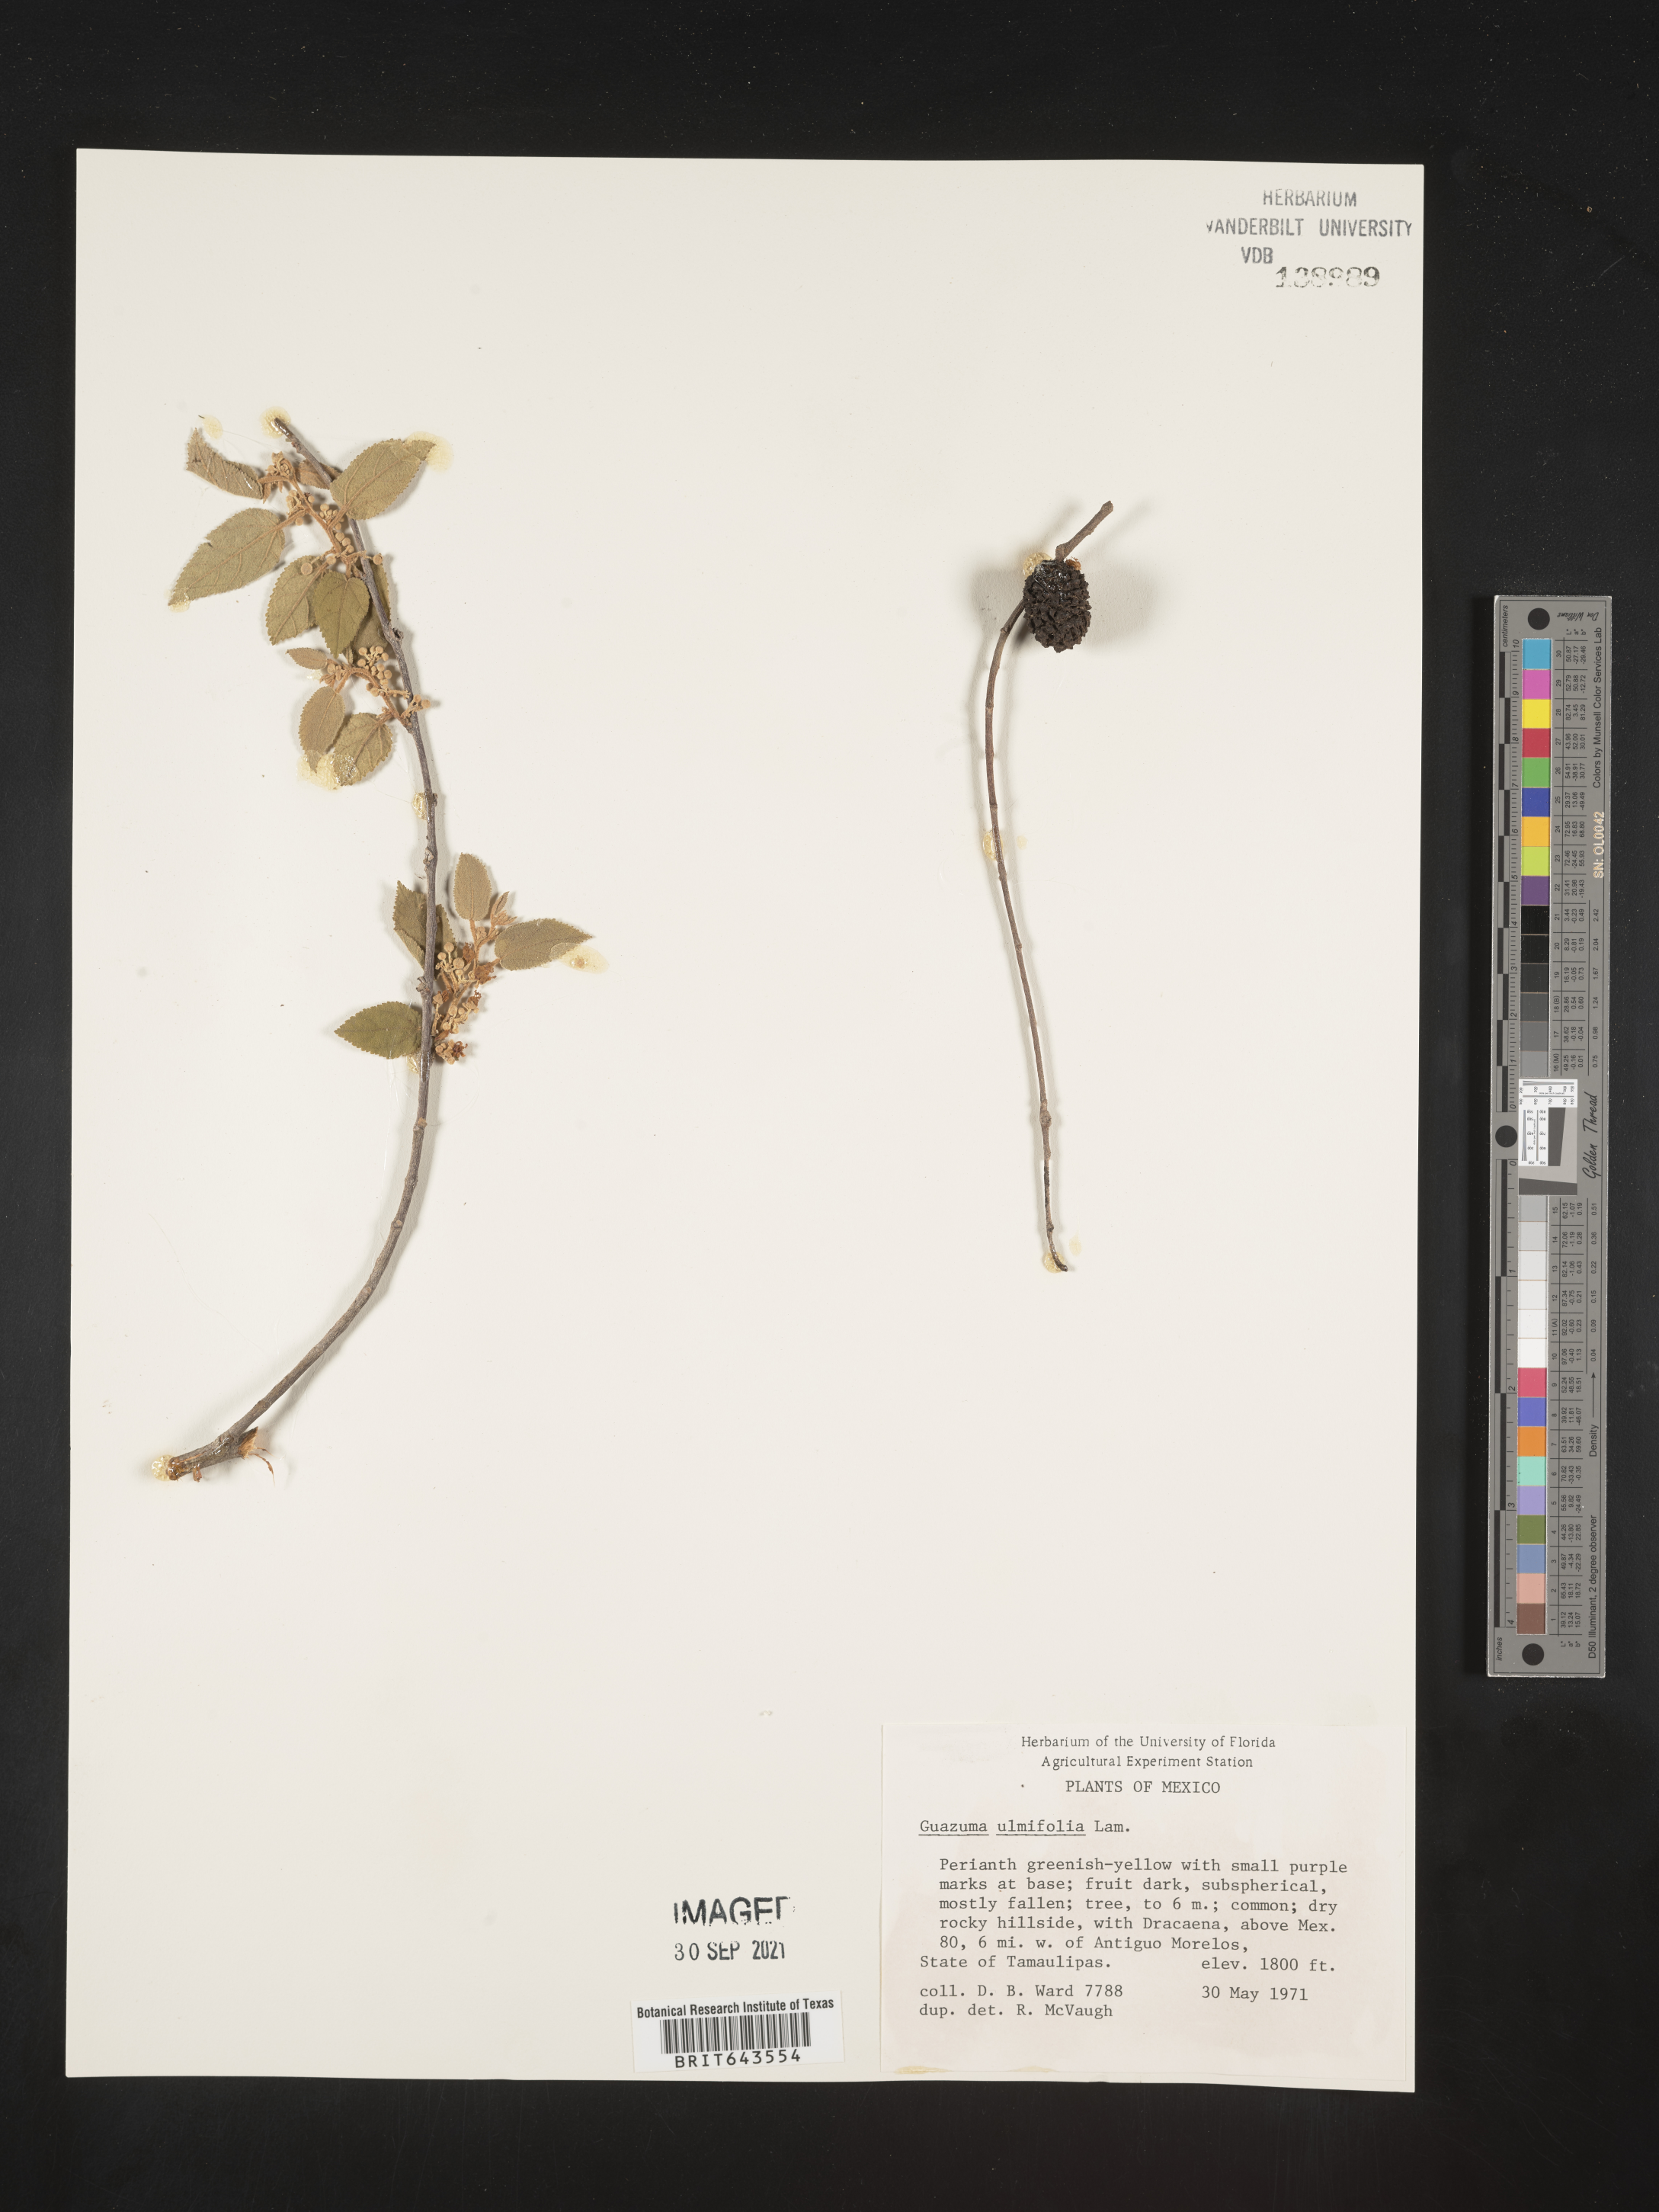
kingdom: Plantae
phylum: Tracheophyta
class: Magnoliopsida
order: Malvales
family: Malvaceae
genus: Guazuma
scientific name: Guazuma
